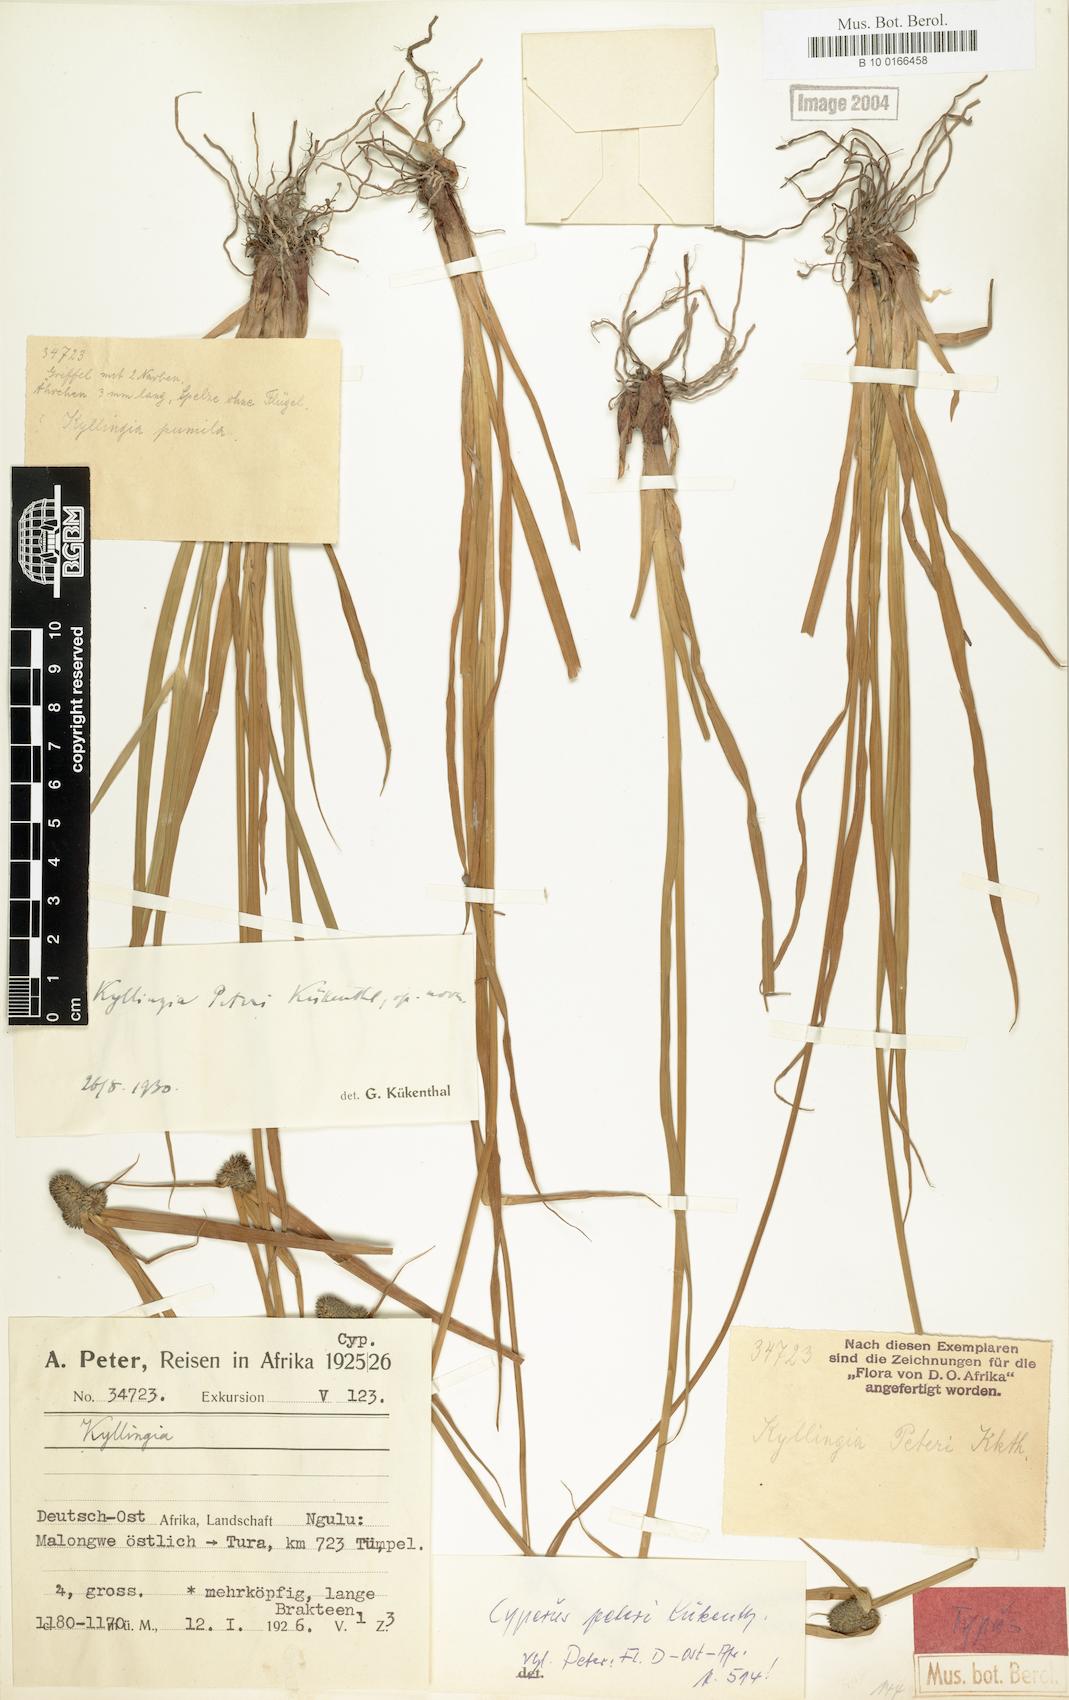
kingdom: Plantae
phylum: Tracheophyta
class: Liliopsida
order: Poales
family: Cyperaceae
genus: Cyperus
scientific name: Cyperus peteri
